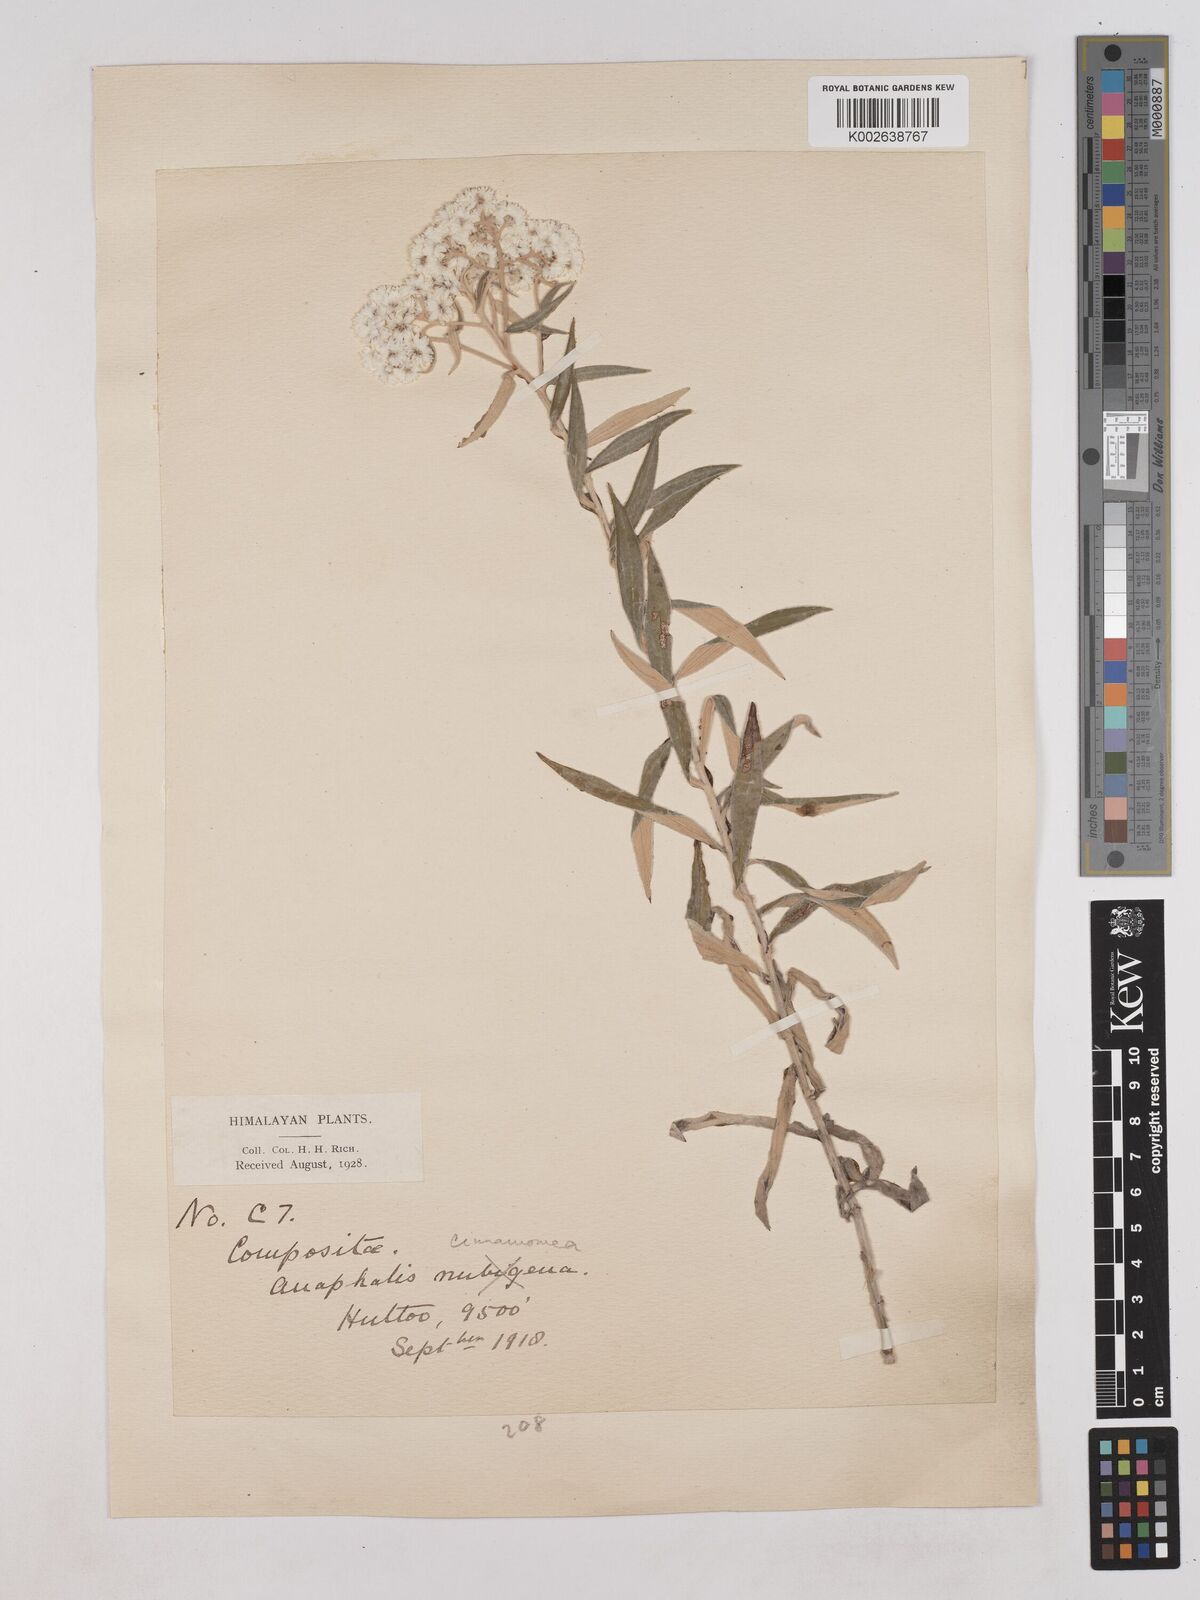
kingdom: Plantae
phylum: Tracheophyta
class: Magnoliopsida
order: Asterales
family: Asteraceae
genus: Anaphalis
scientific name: Anaphalis marcescens
